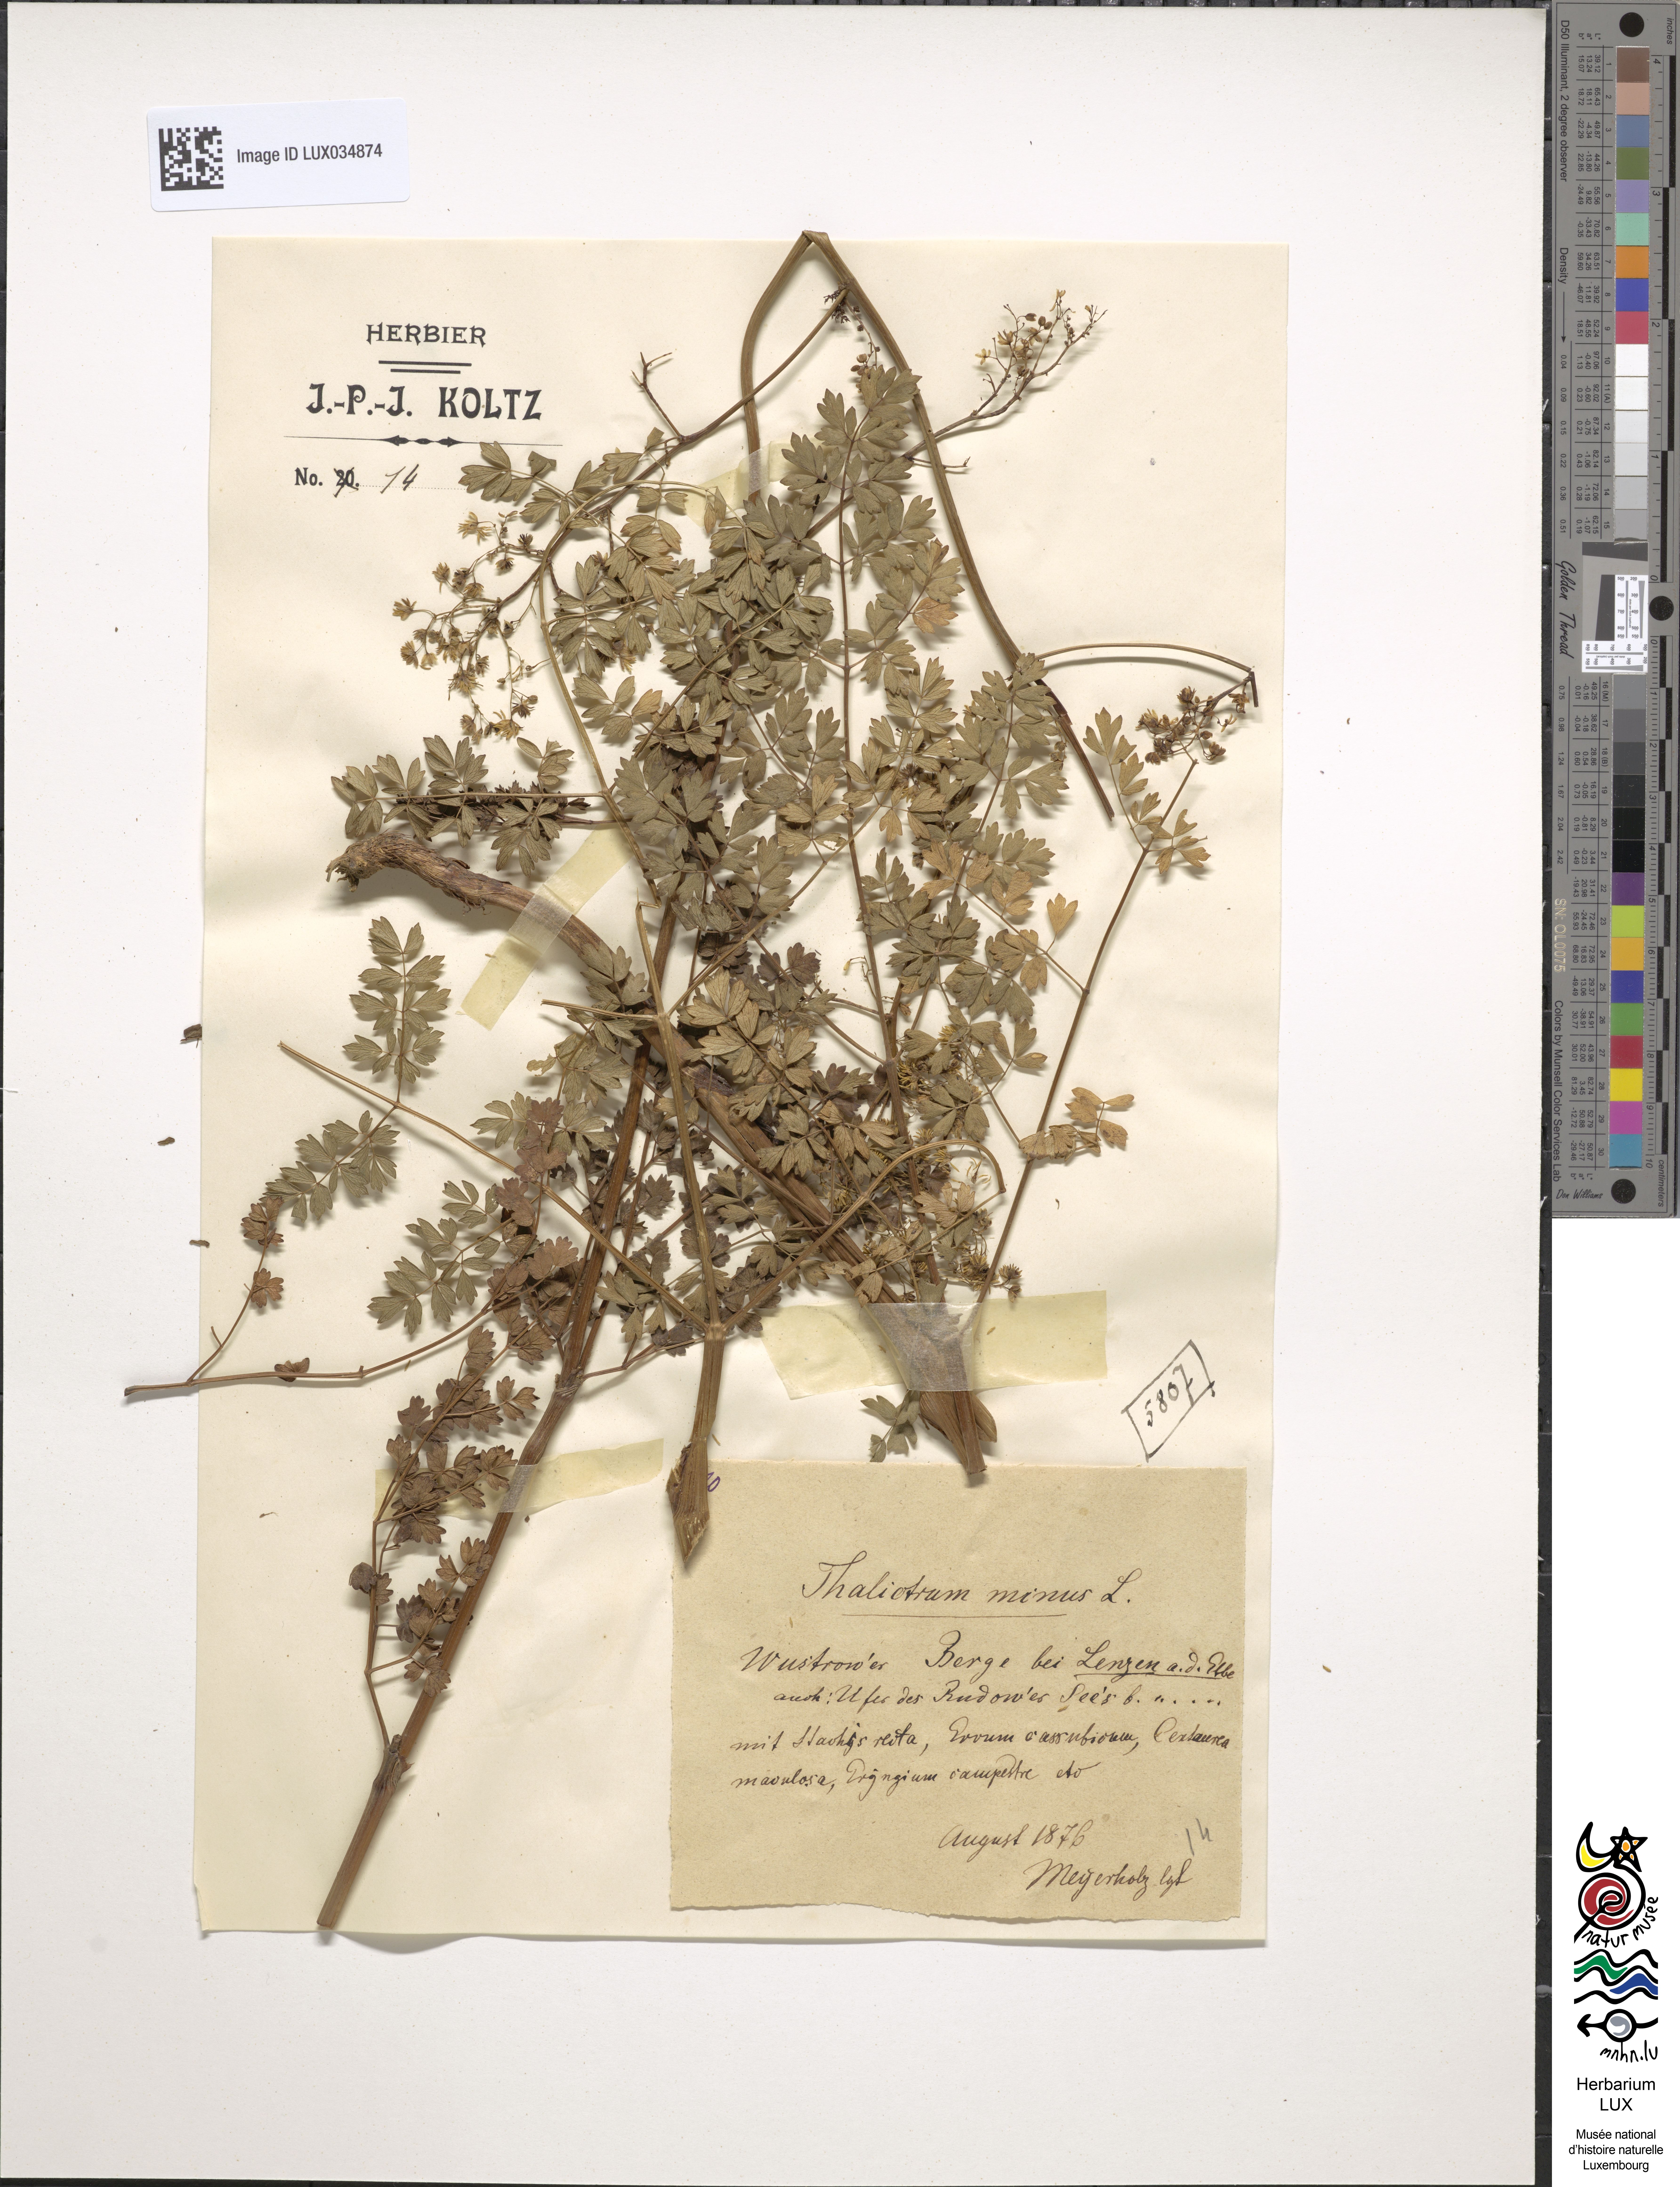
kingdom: Plantae
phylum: Tracheophyta
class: Magnoliopsida
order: Ranunculales
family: Ranunculaceae
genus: Thalictrum
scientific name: Thalictrum minus
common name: Lesser meadow-rue
